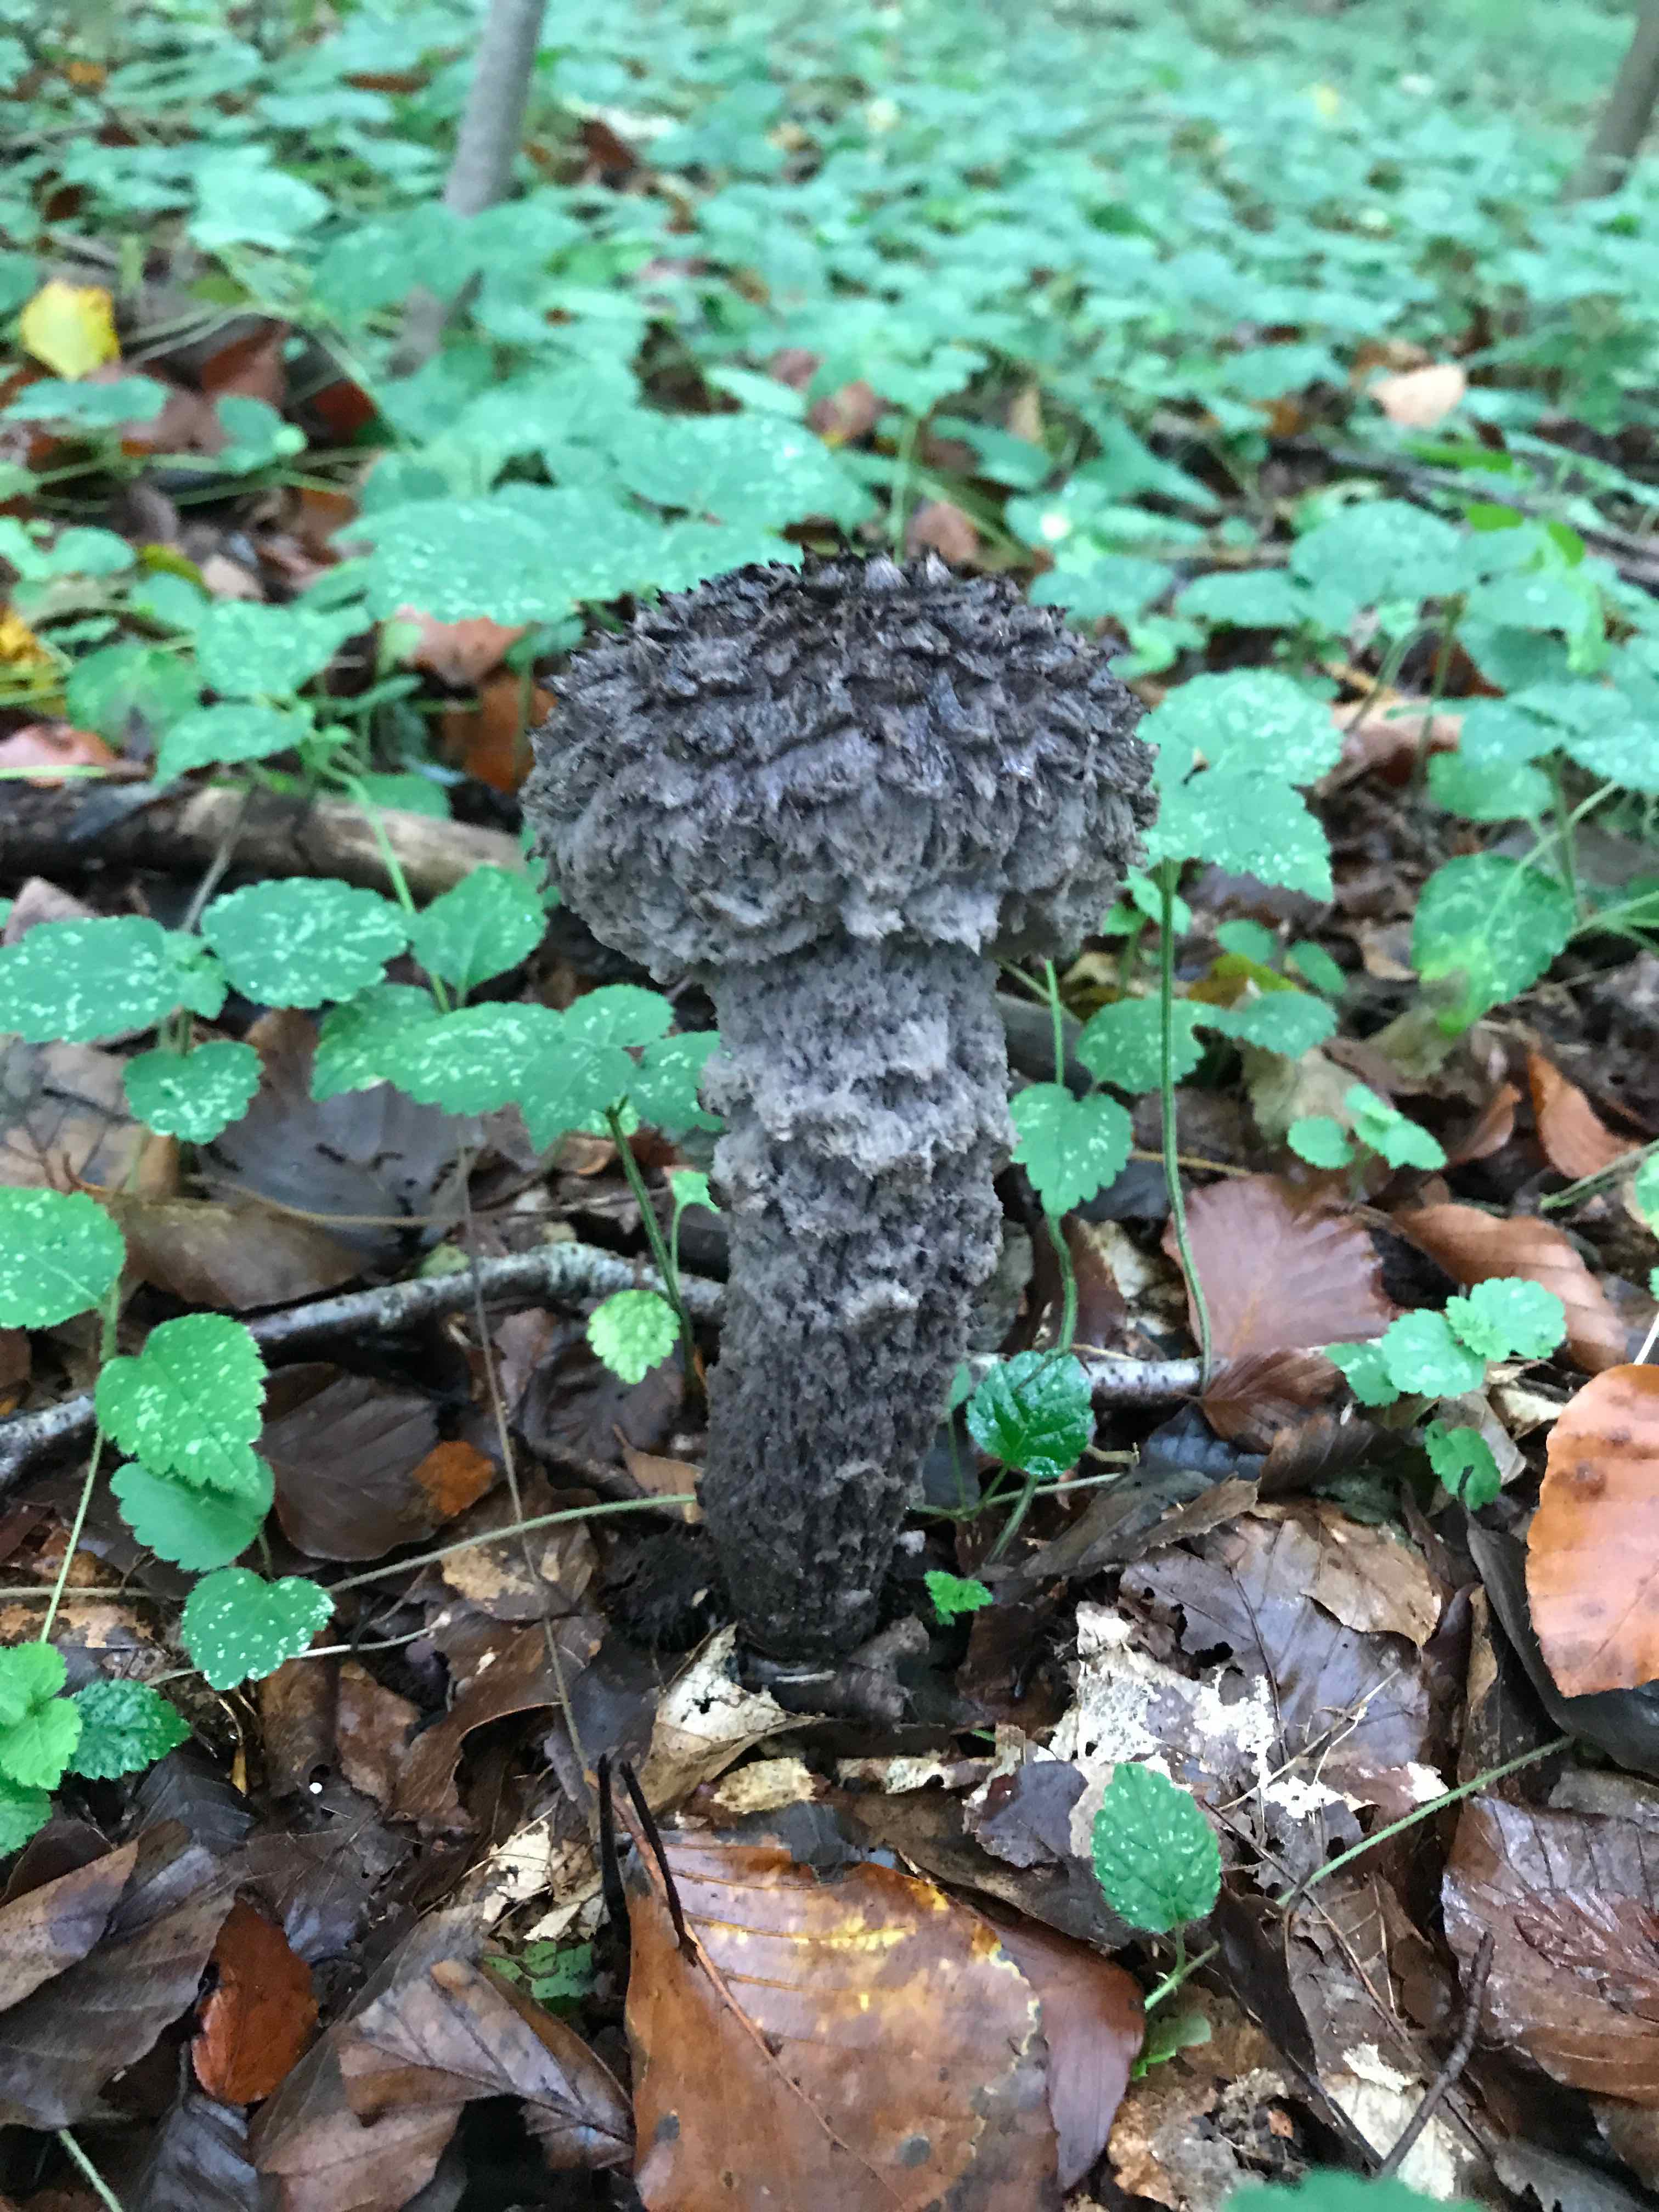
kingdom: Fungi
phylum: Basidiomycota
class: Agaricomycetes
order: Boletales
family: Boletaceae
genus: Strobilomyces
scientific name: Strobilomyces strobilaceus
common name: koglerørhat
